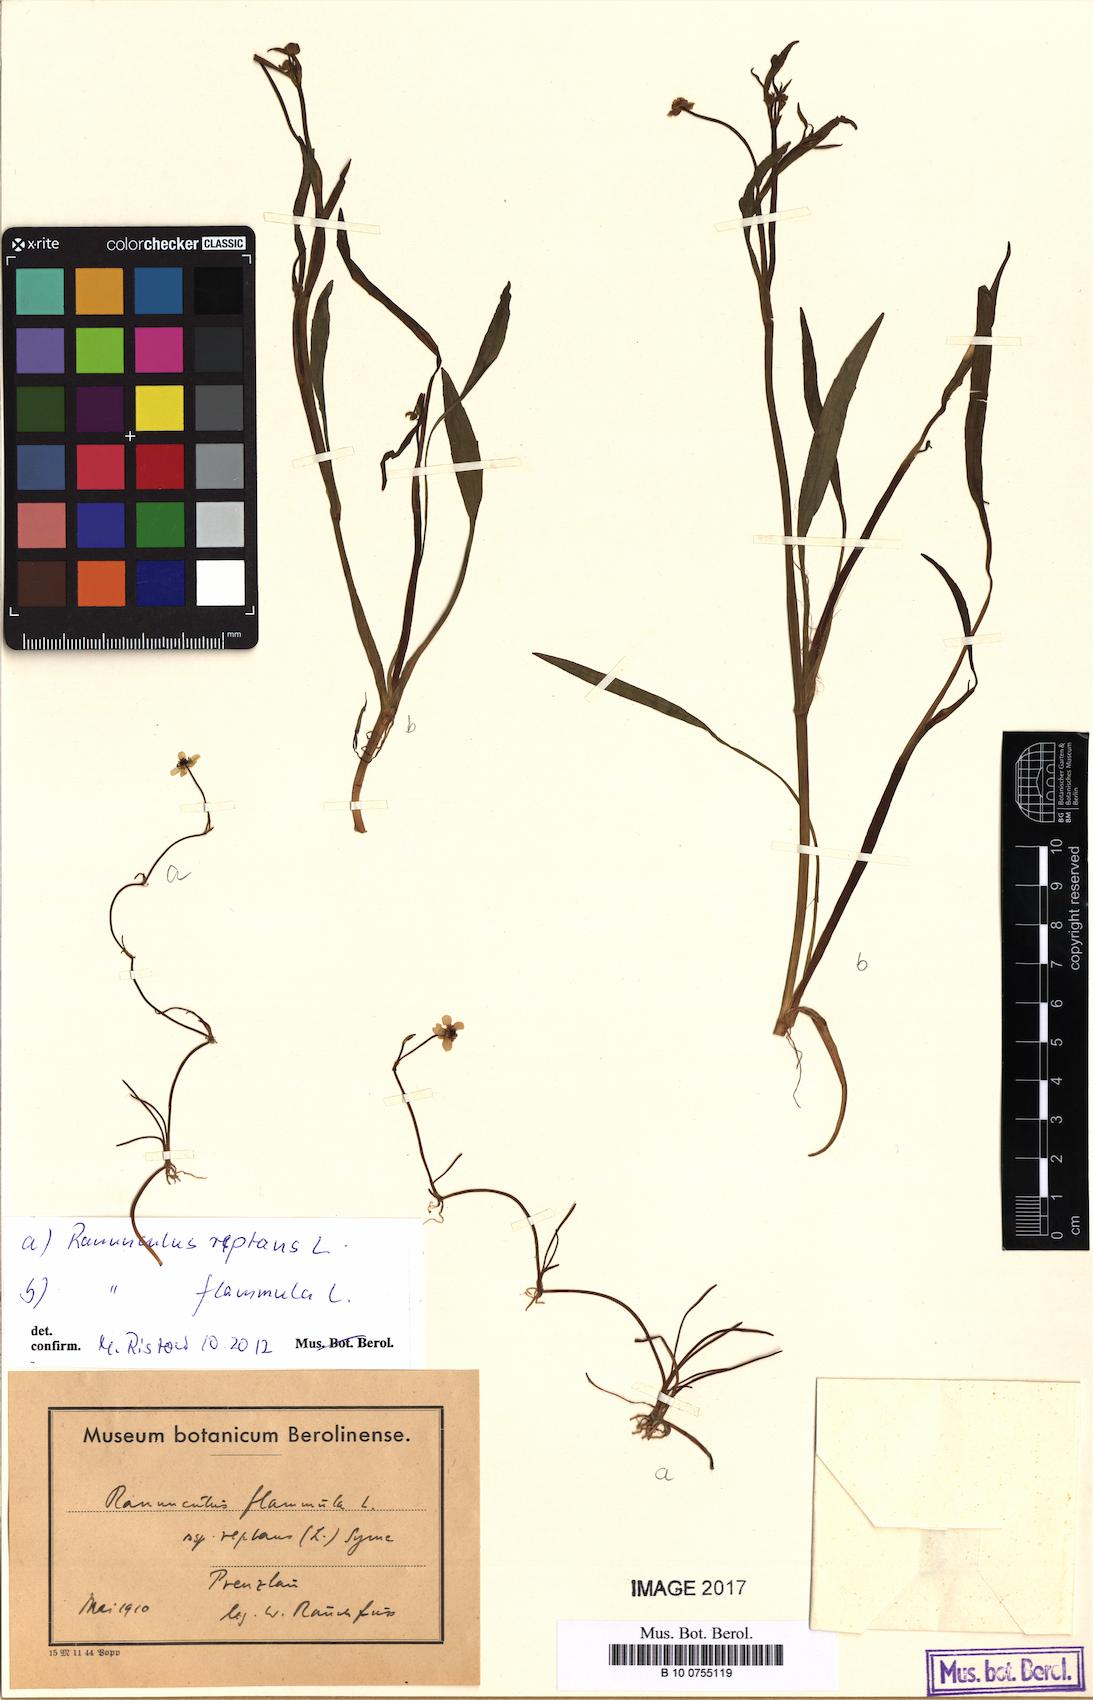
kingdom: Plantae
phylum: Tracheophyta
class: Magnoliopsida
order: Ranunculales
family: Ranunculaceae
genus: Ranunculus
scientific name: Ranunculus reptans
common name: Creeping spearwort
